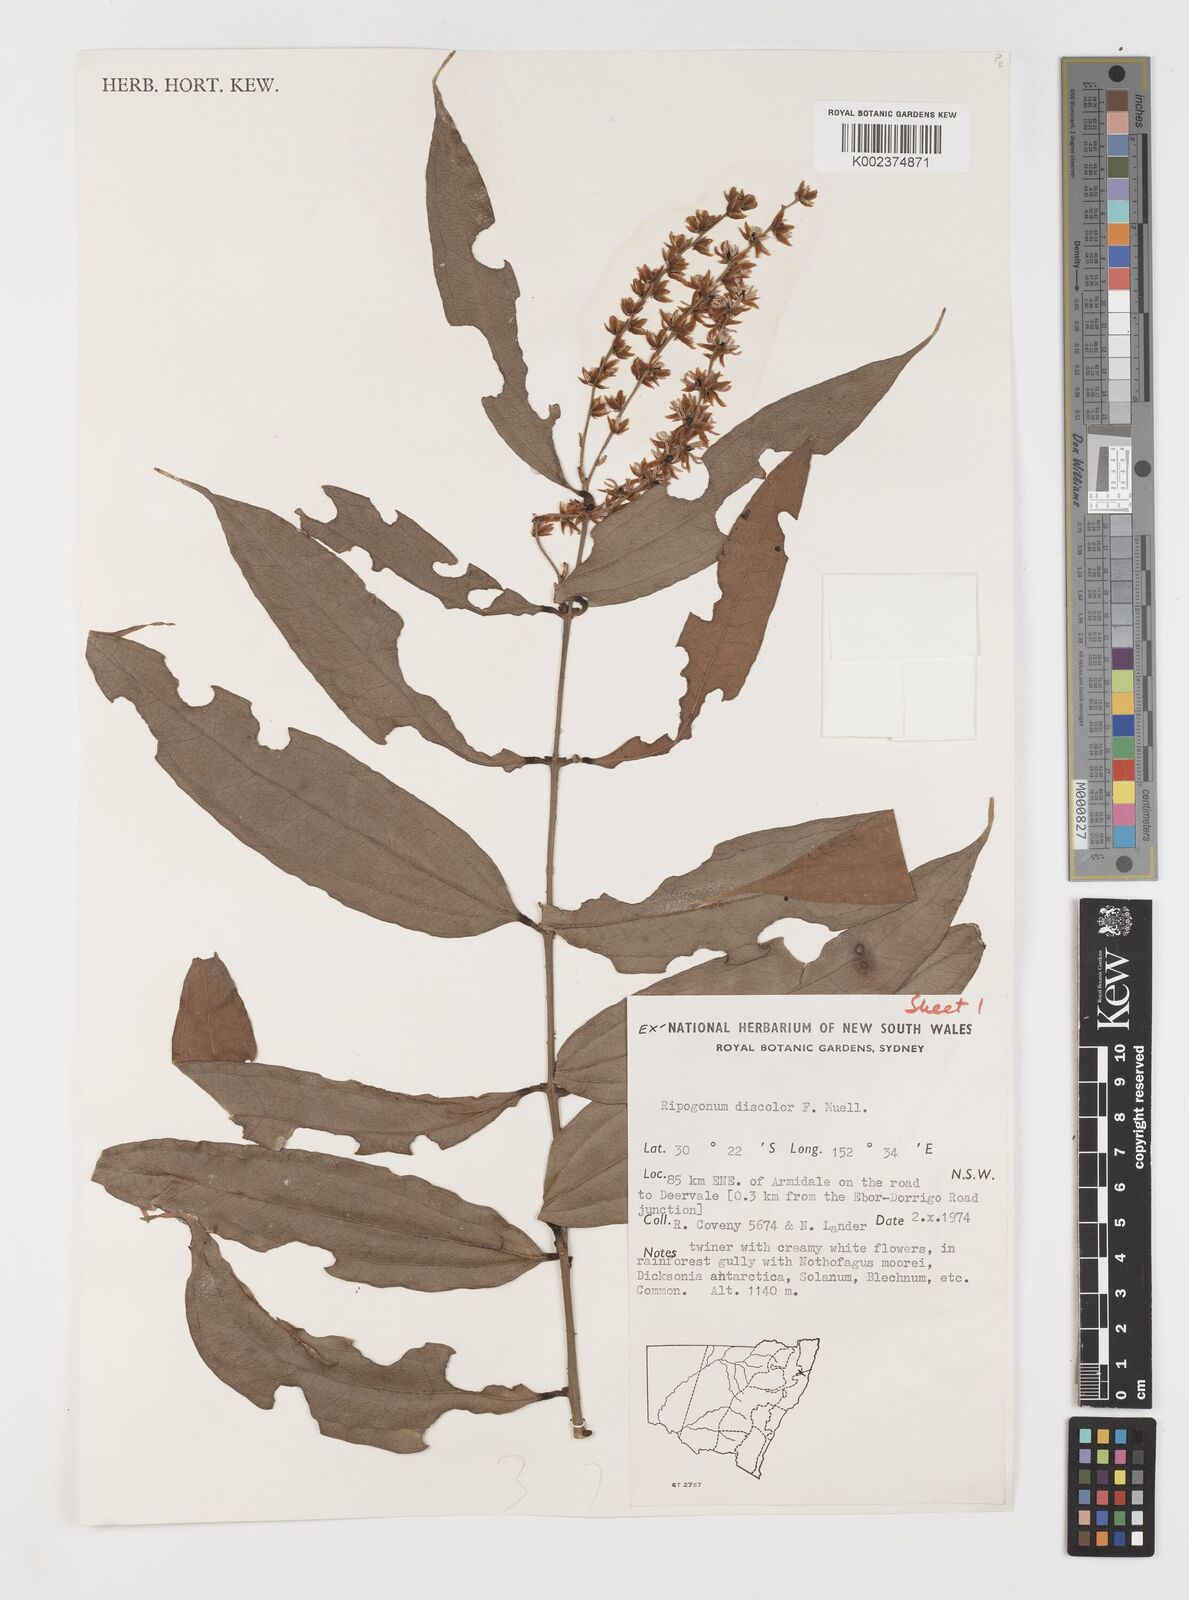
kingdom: Plantae
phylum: Tracheophyta
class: Liliopsida
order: Liliales
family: Ripogonaceae
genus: Ripogonum
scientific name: Ripogonum discolor
